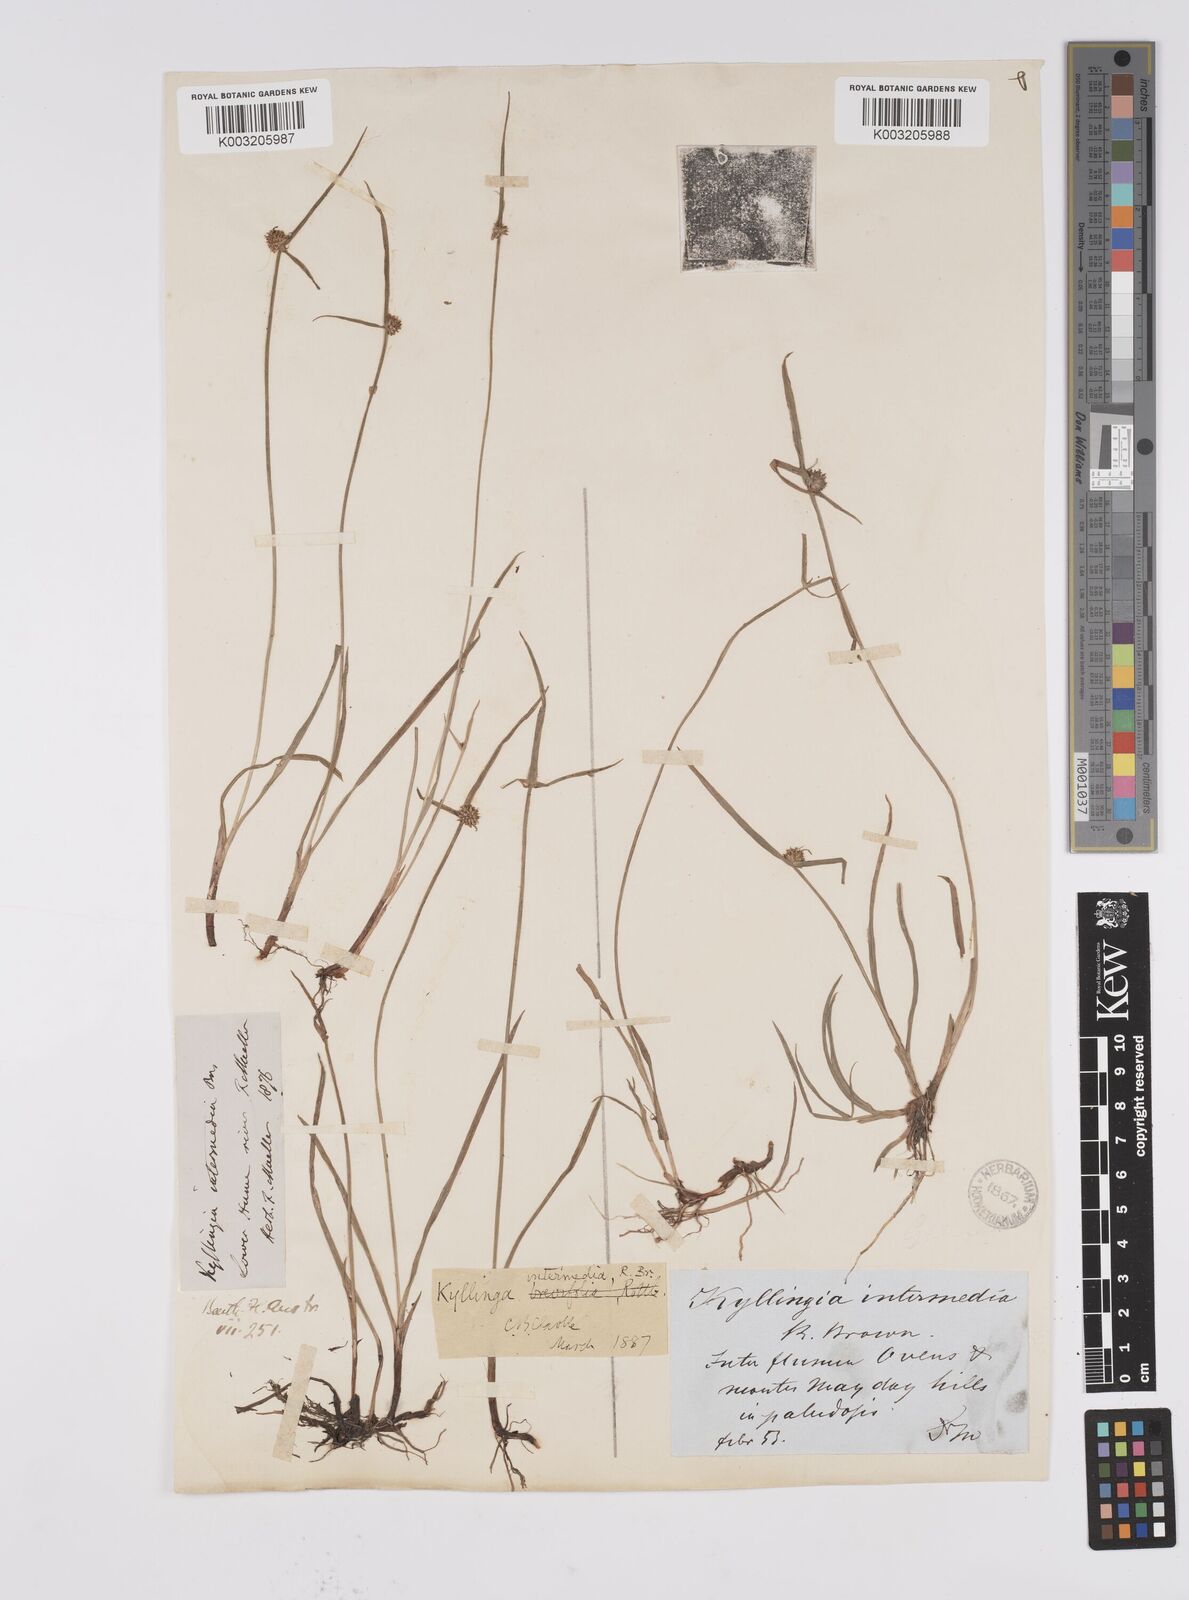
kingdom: Plantae
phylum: Tracheophyta
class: Liliopsida
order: Poales
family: Cyperaceae
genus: Cyperus
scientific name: Cyperus brevifolius
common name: Globe kyllinga
